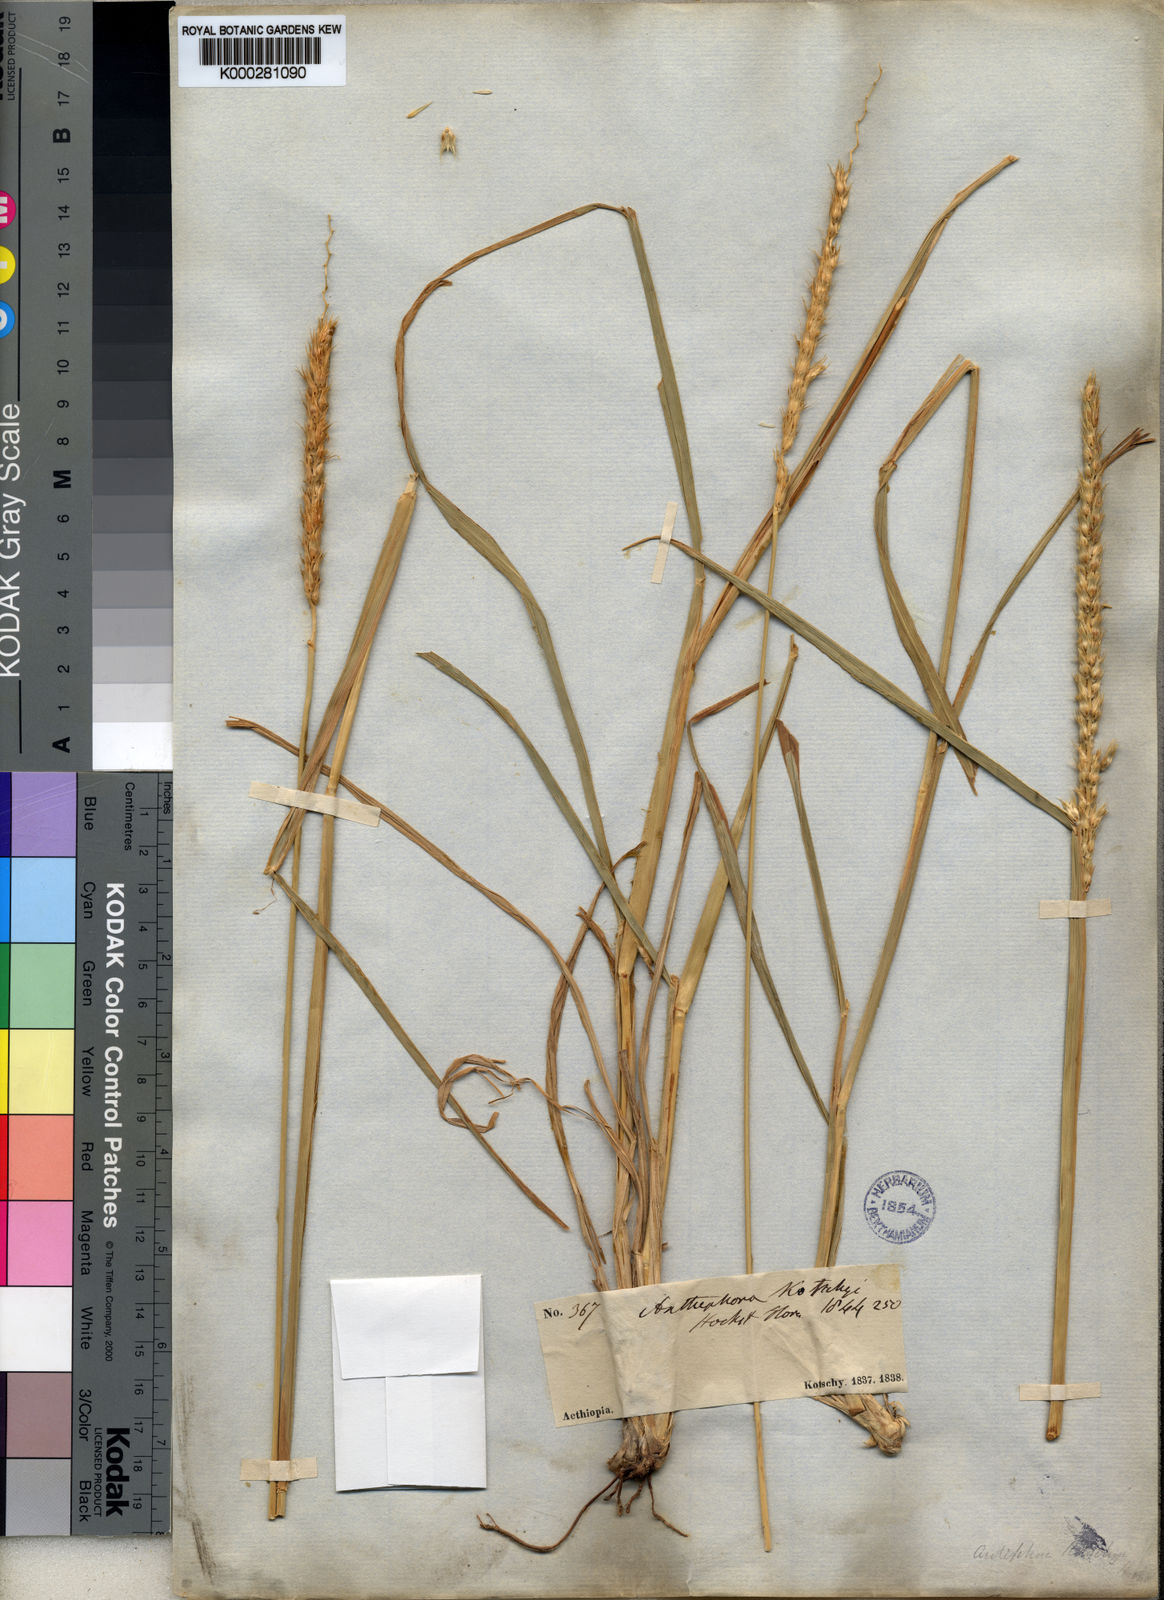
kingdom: Plantae
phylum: Tracheophyta
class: Liliopsida
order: Poales
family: Poaceae
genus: Anthephora
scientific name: Anthephora pubescens
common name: Wool grass
